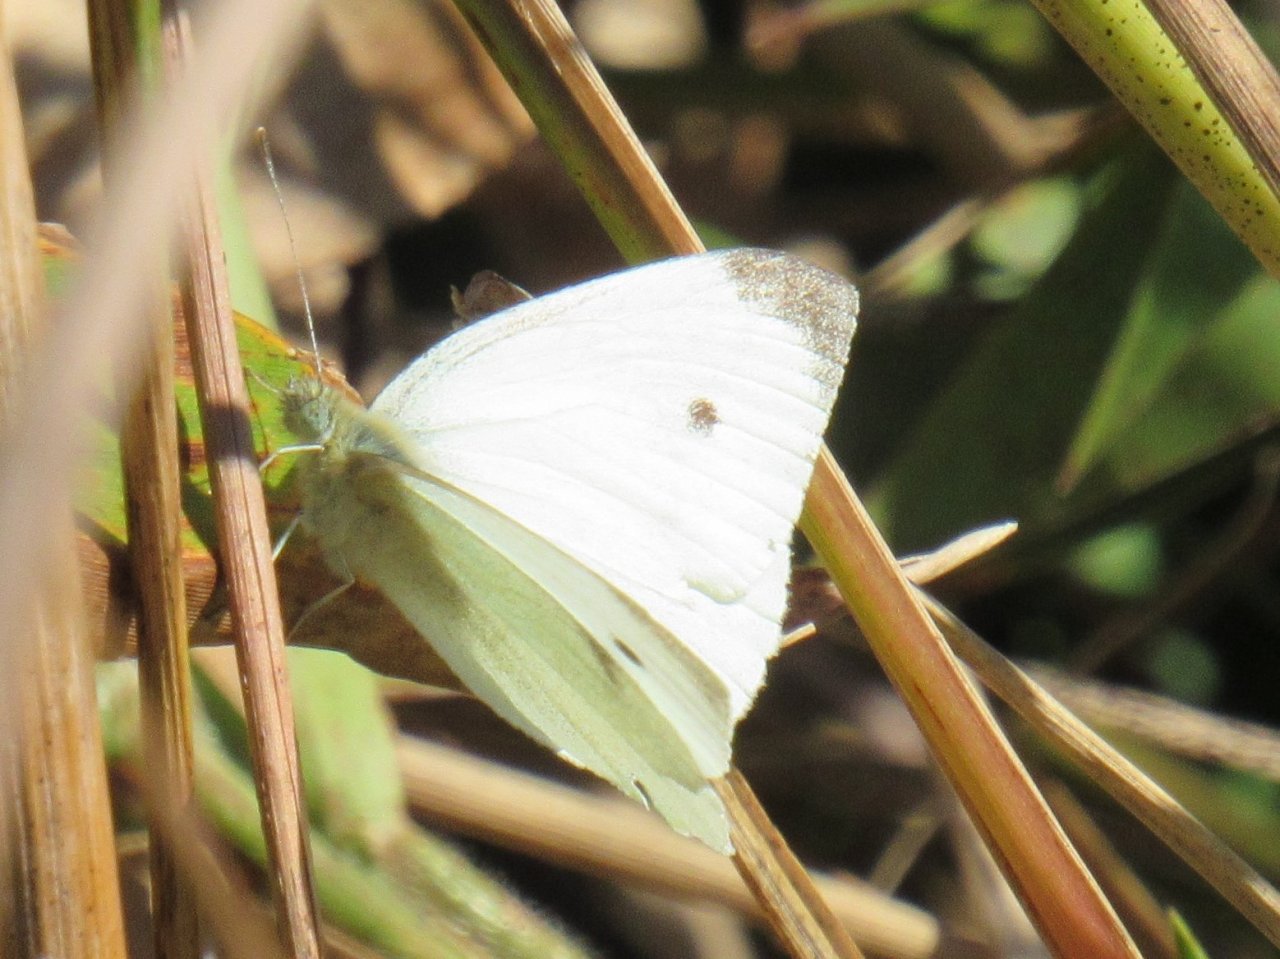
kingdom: Animalia
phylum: Arthropoda
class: Insecta
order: Lepidoptera
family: Pieridae
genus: Pieris
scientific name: Pieris rapae
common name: Cabbage White
